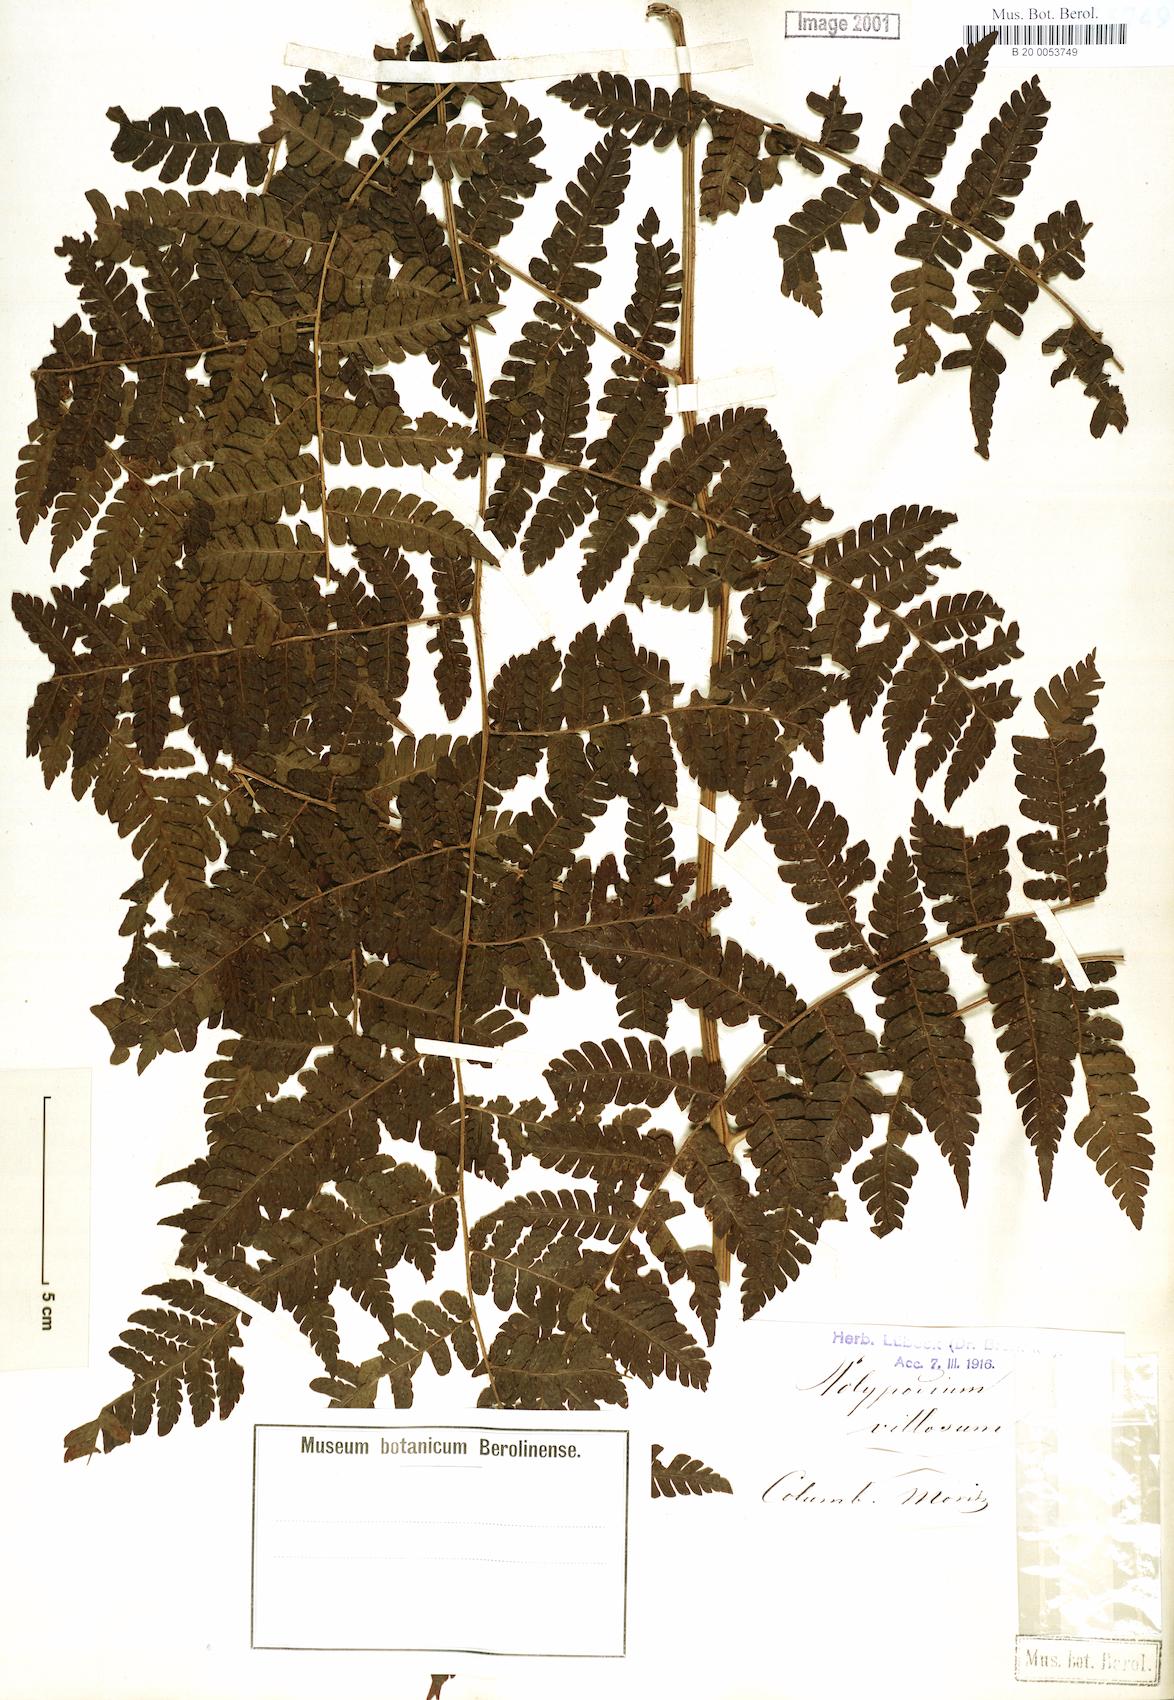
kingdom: Plantae
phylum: Tracheophyta
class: Polypodiopsida
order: Polypodiales
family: Dryopteridaceae
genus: Megalastrum
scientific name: Megalastrum villosum
